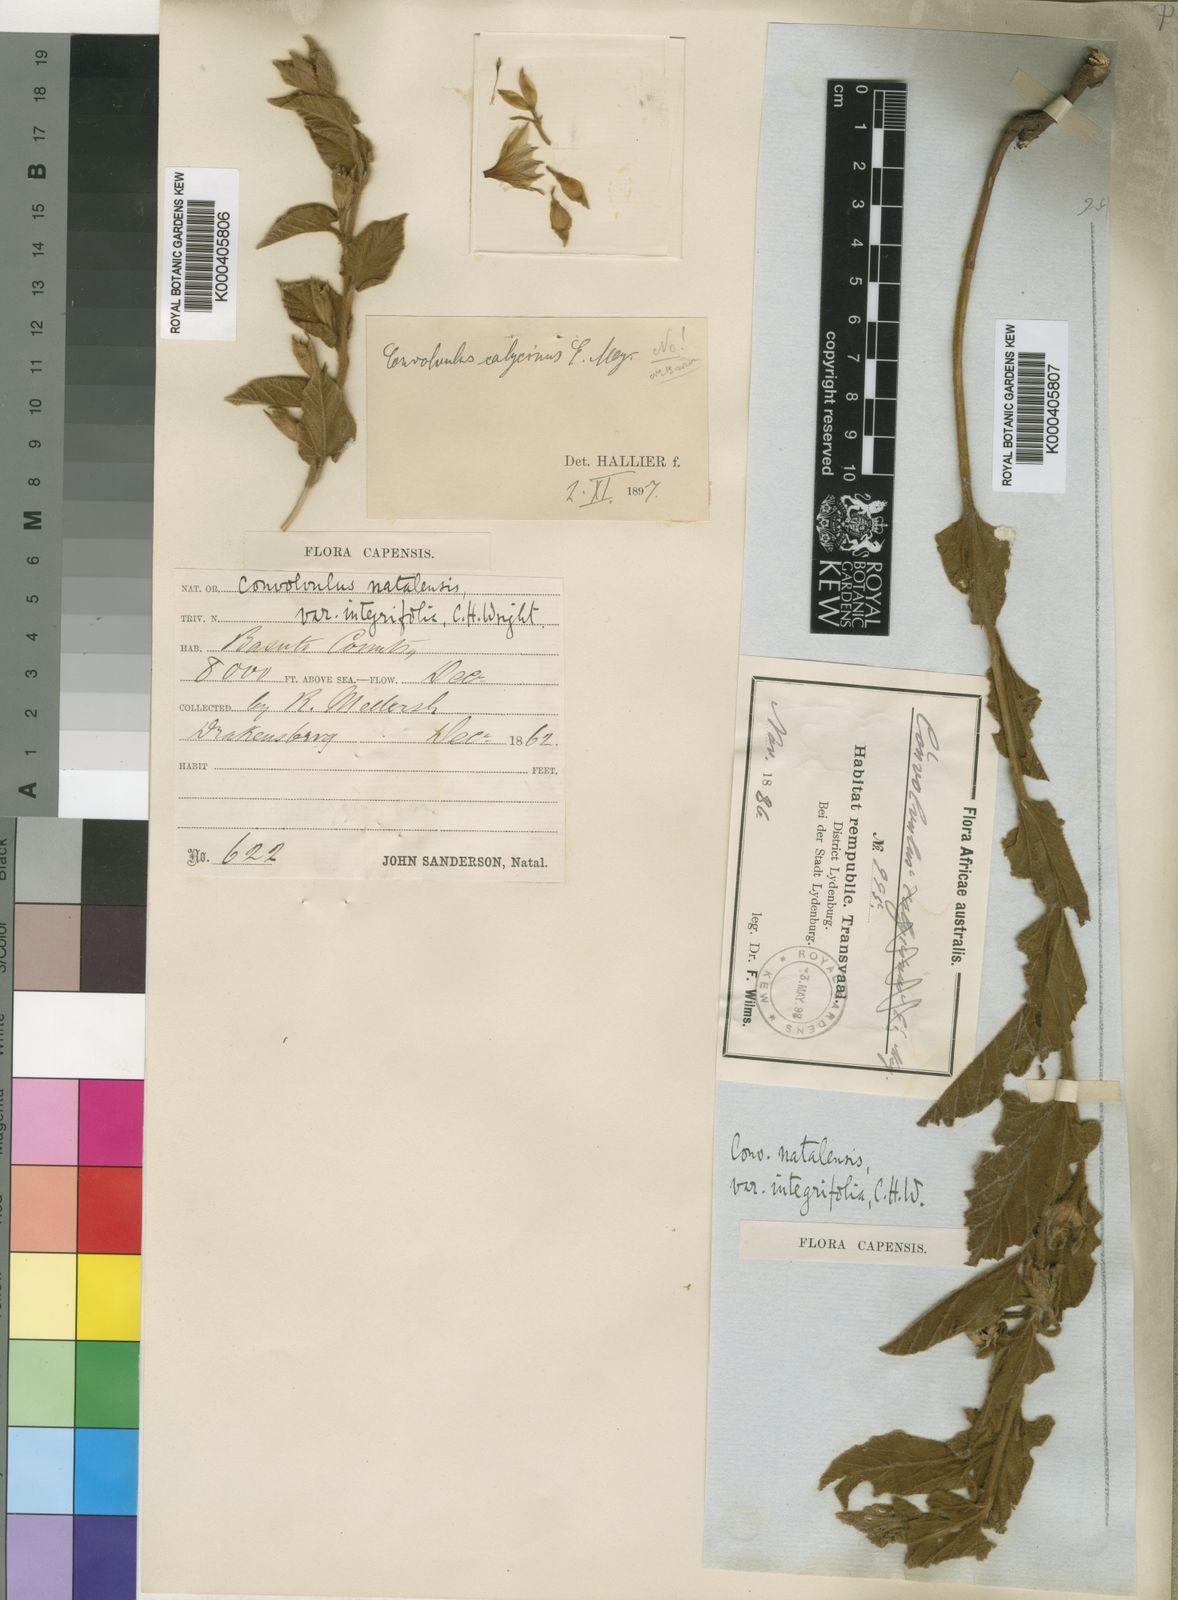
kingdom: Plantae
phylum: Tracheophyta
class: Magnoliopsida
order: Solanales
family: Convolvulaceae
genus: Convolvulus
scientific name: Convolvulus natalensis
